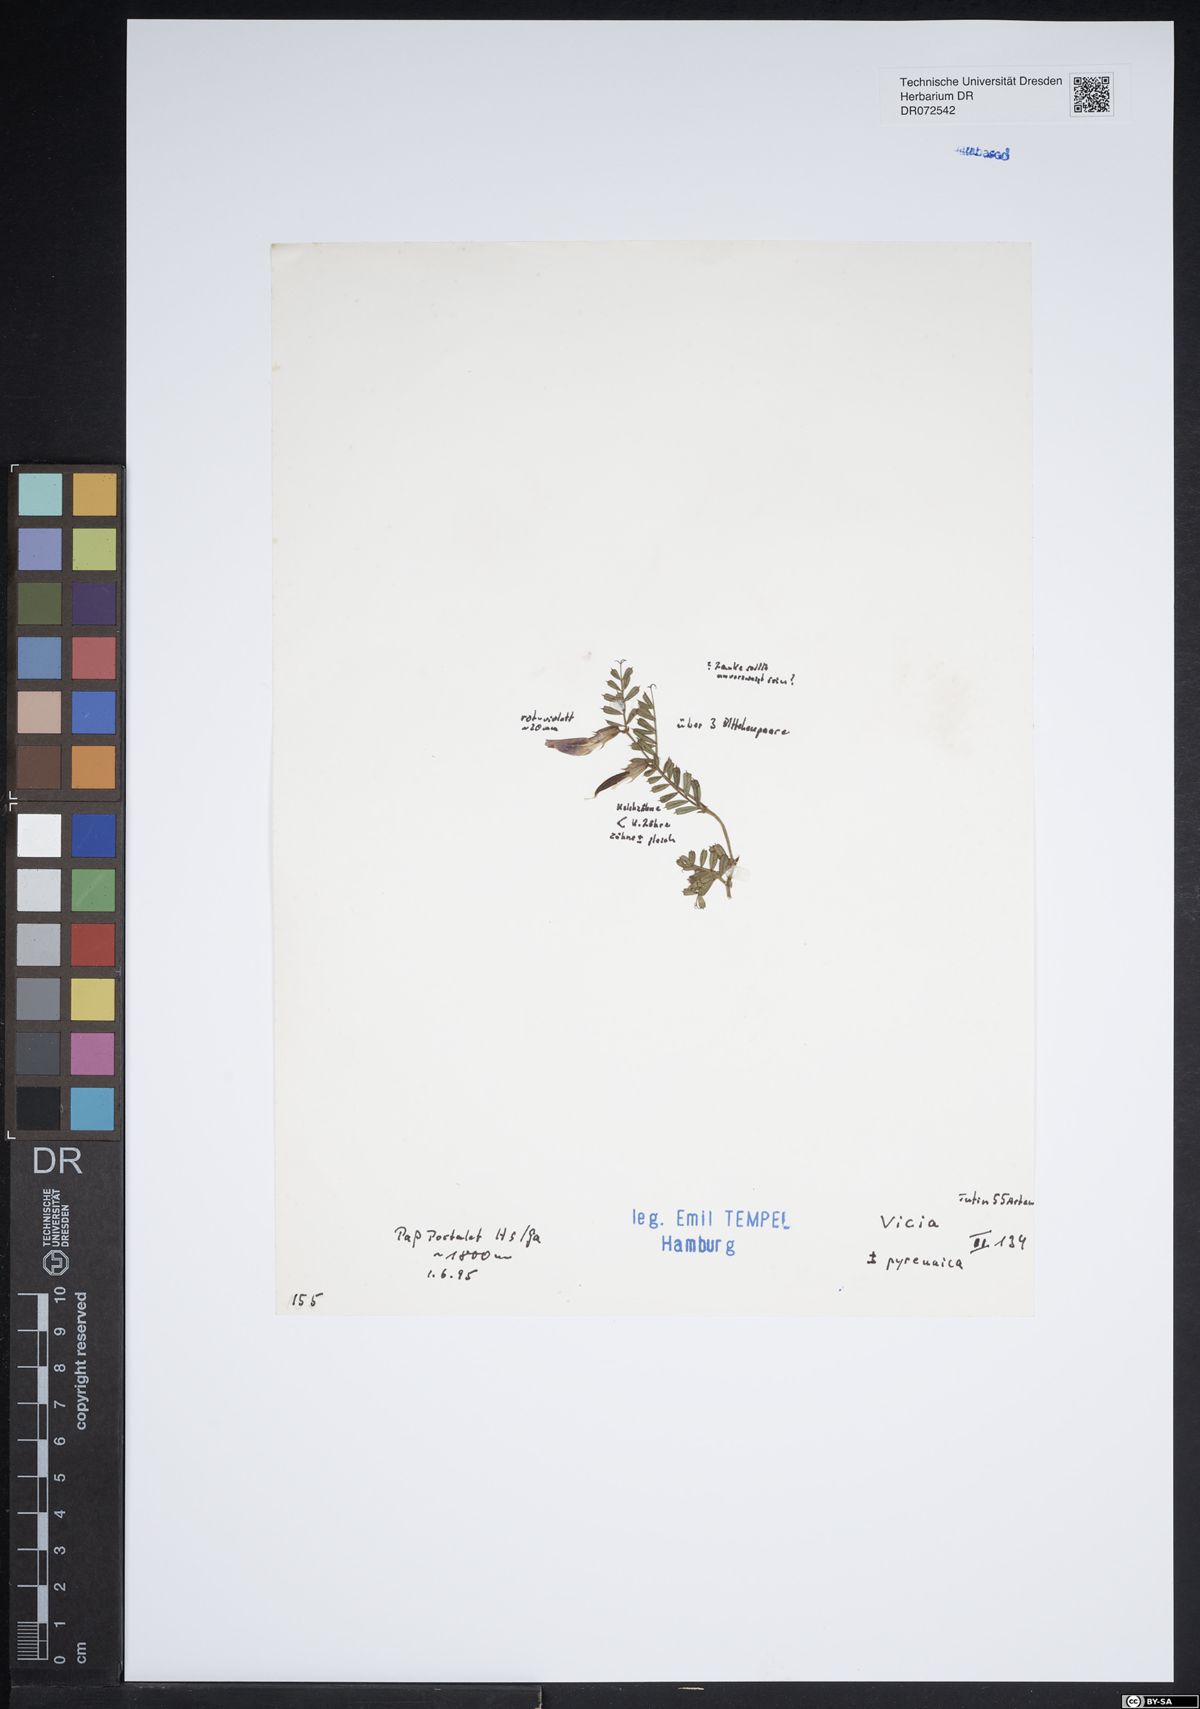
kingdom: Plantae
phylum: Tracheophyta
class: Magnoliopsida
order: Fabales
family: Fabaceae
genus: Vicia
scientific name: Vicia pyrenaica
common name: Pyrenean vetch
